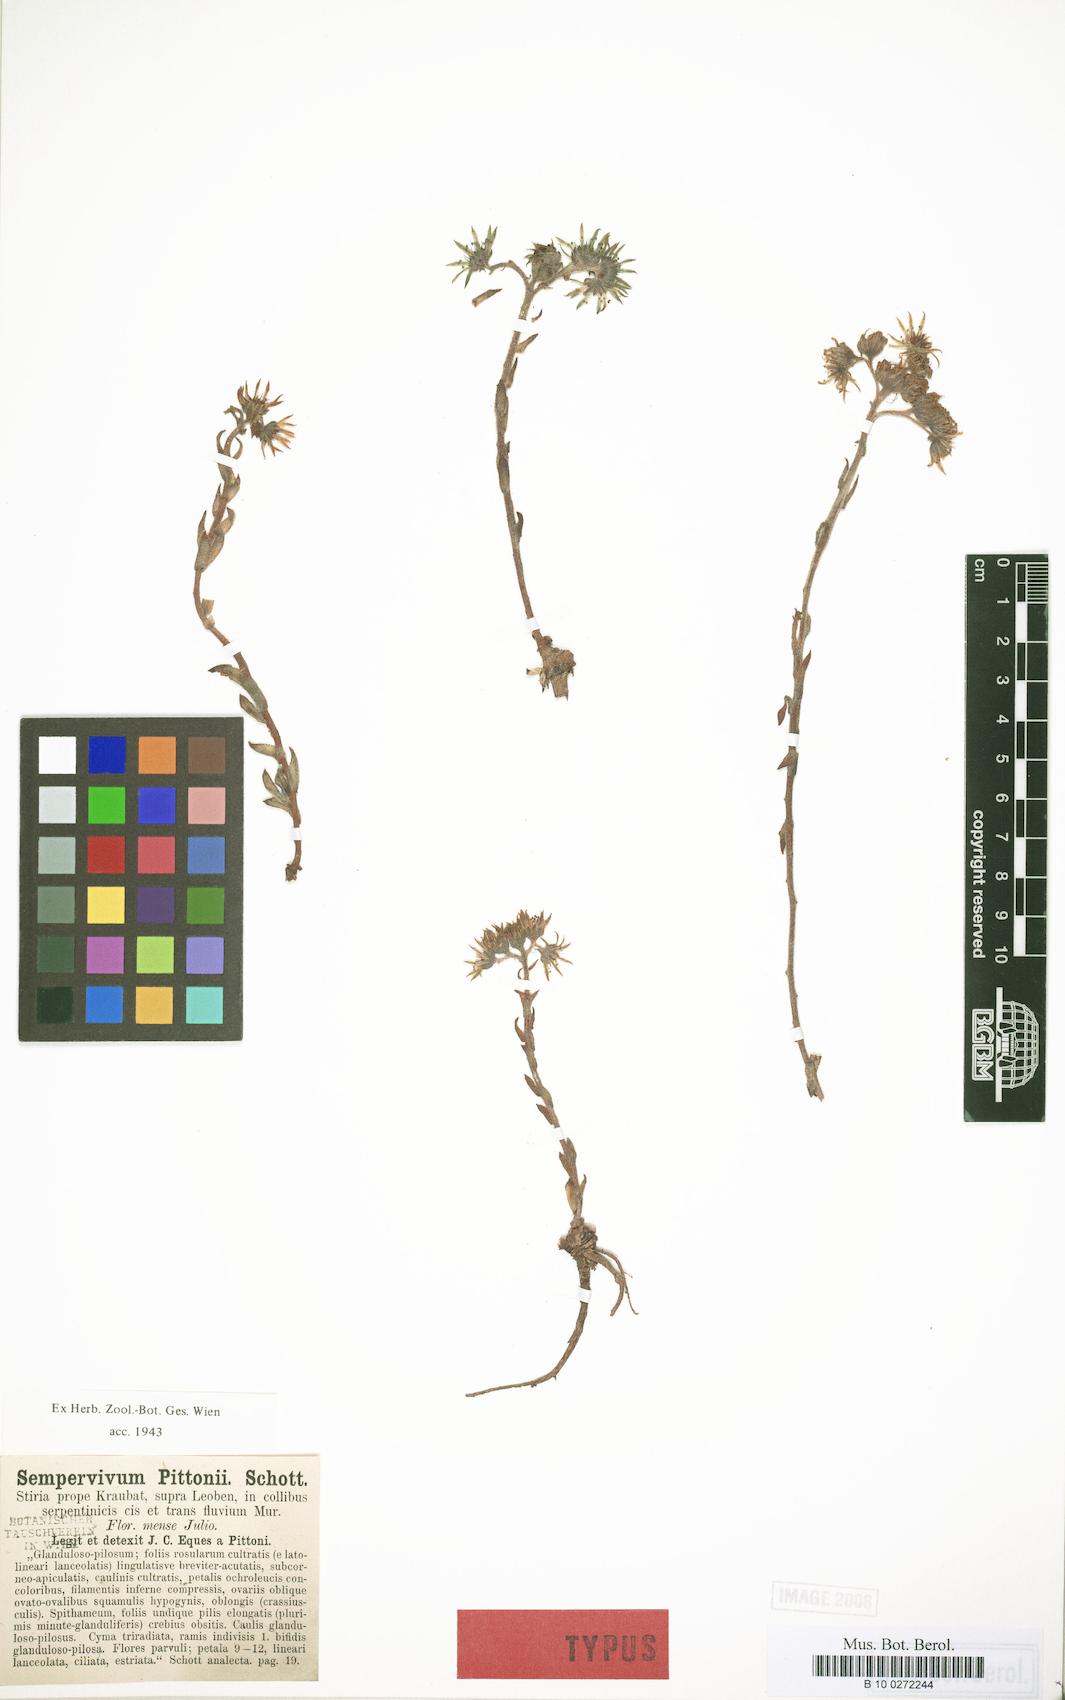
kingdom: Plantae
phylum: Tracheophyta
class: Magnoliopsida
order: Saxifragales
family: Crassulaceae
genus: Sempervivum
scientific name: Sempervivum pittonii
